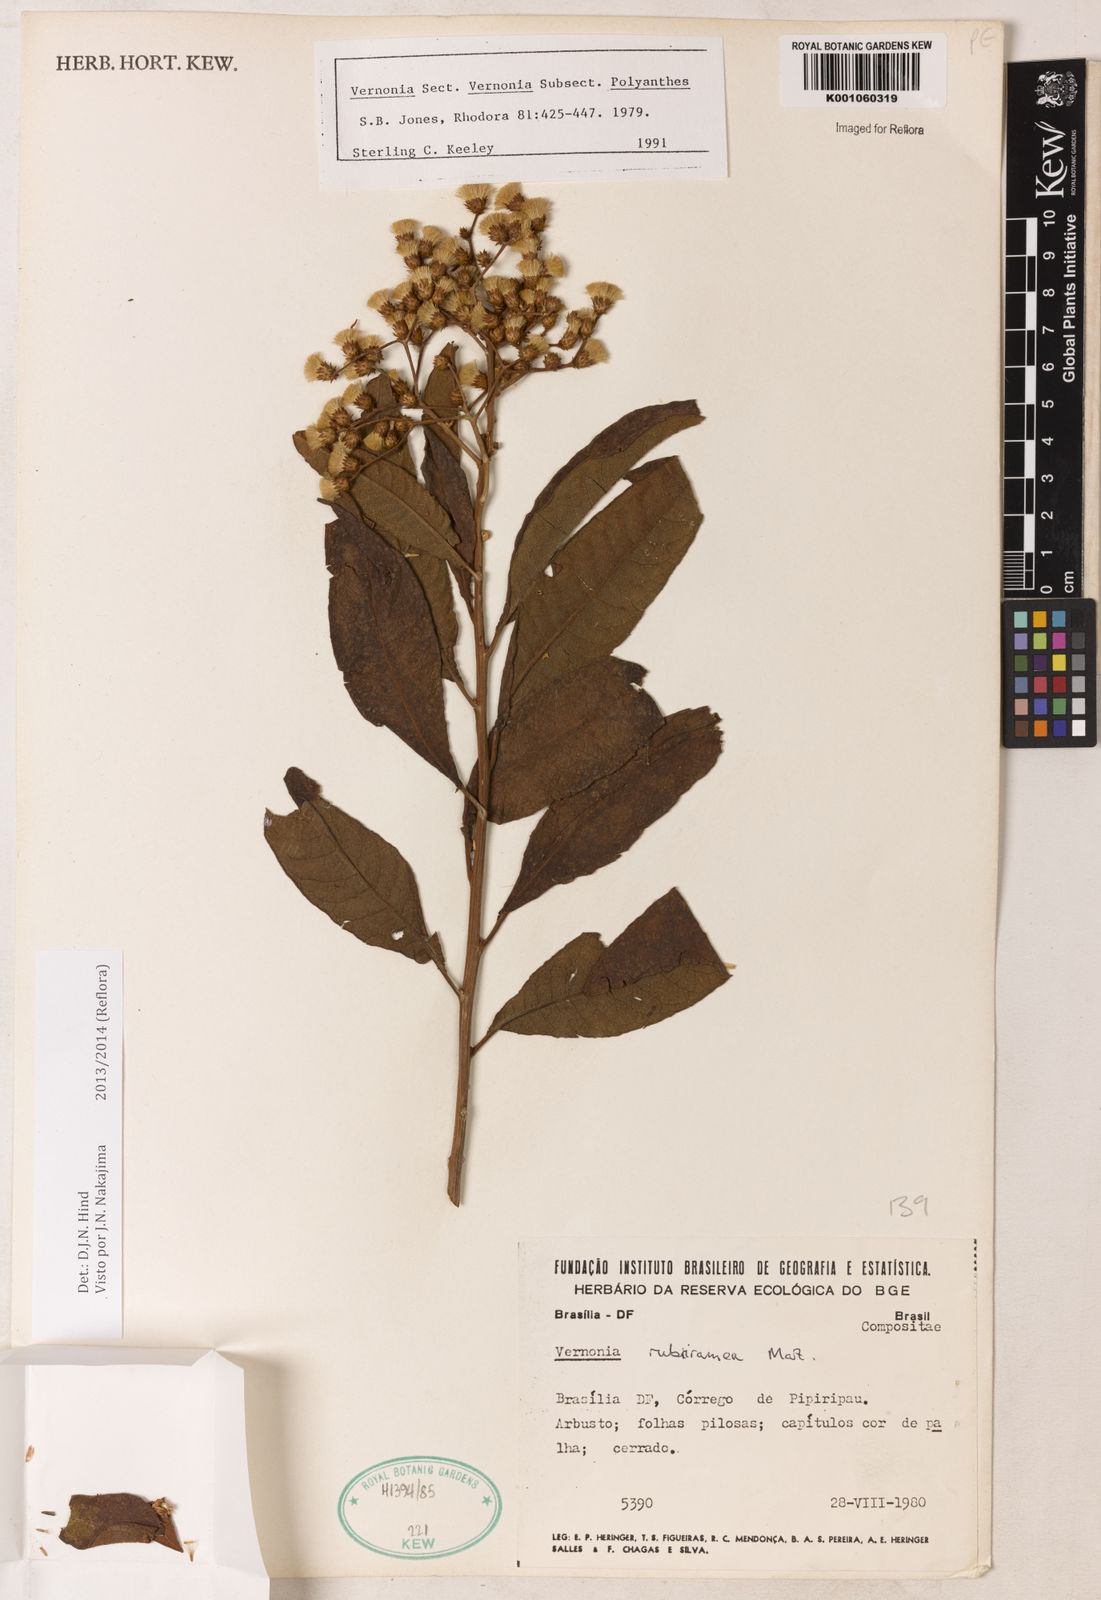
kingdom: Plantae
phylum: Tracheophyta
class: Magnoliopsida
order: Asterales
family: Asteraceae
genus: Vernonanthura
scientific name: Vernonanthura rubriramea
